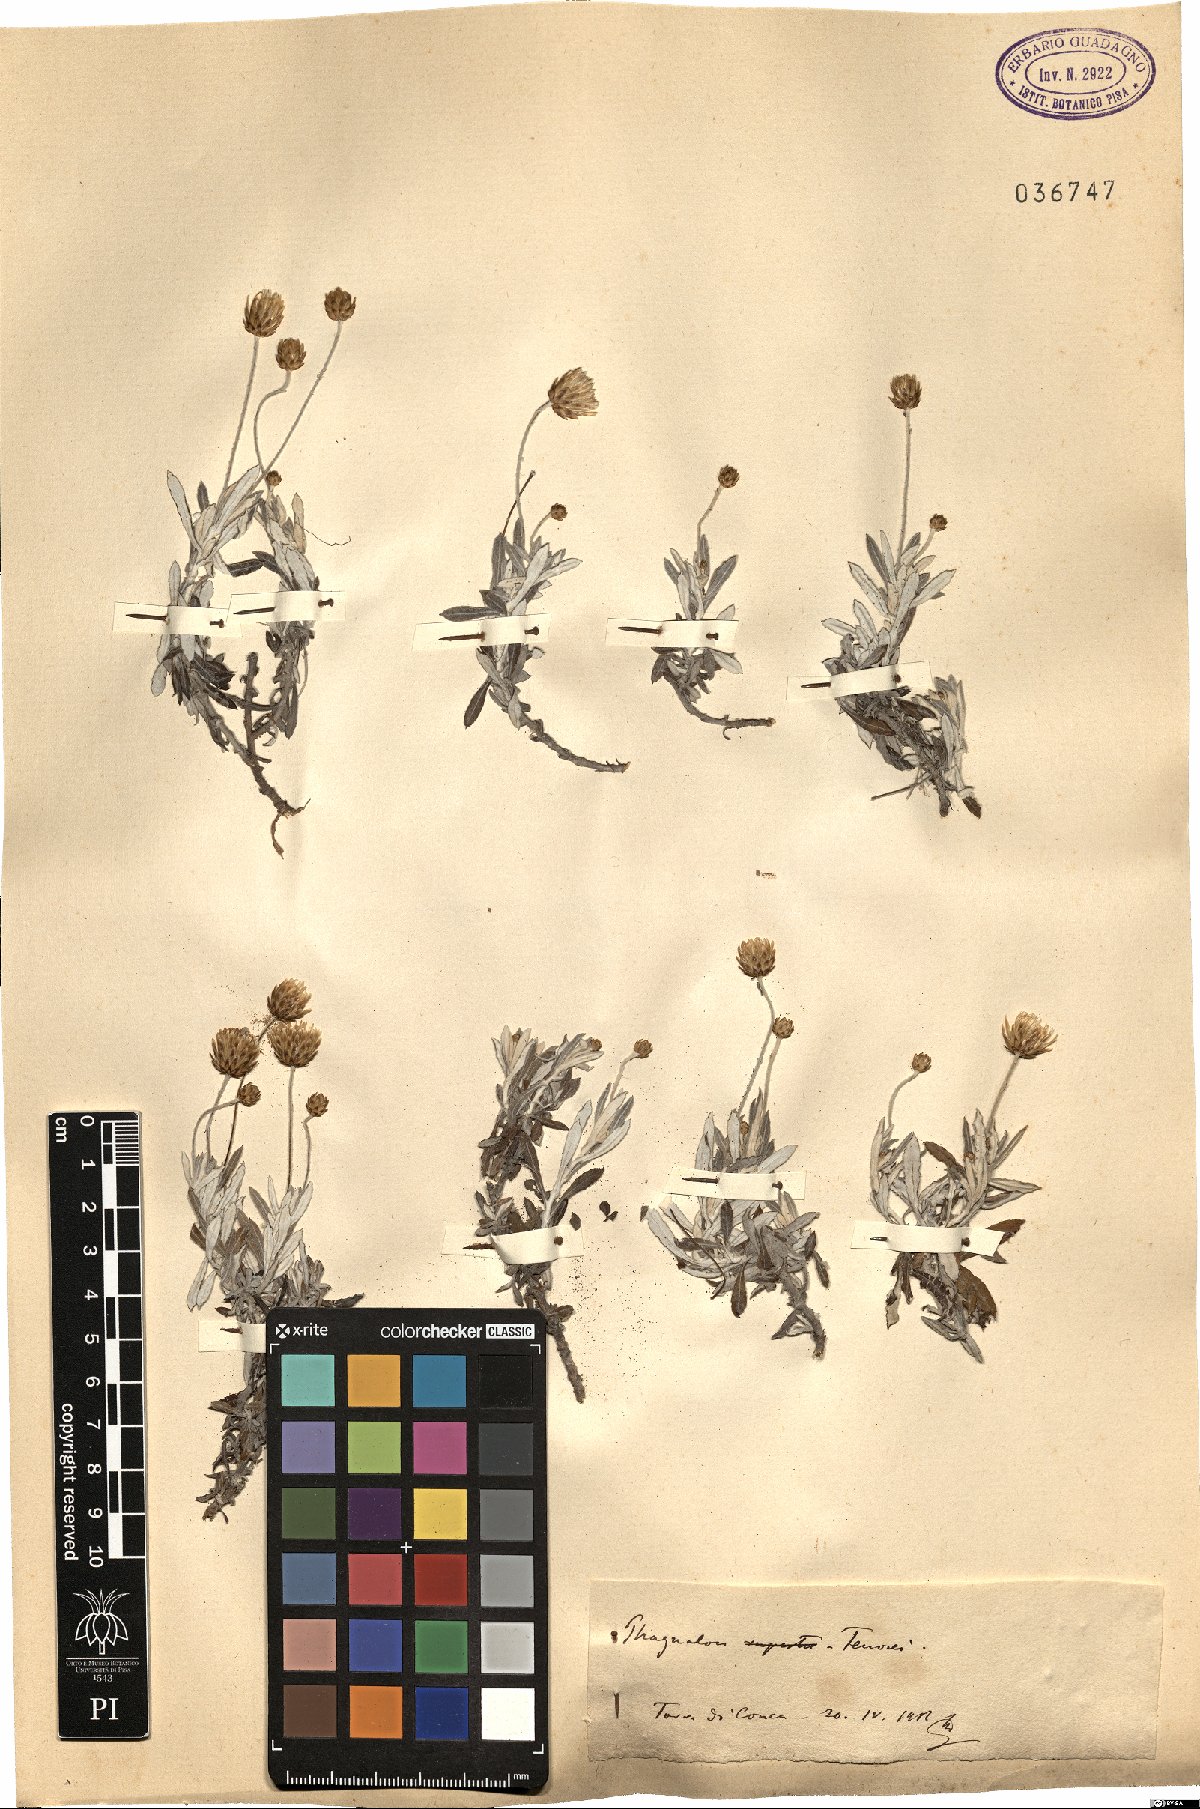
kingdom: Plantae
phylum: Tracheophyta
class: Magnoliopsida
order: Asterales
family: Asteraceae
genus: Phagnalon
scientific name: Phagnalon graecum
